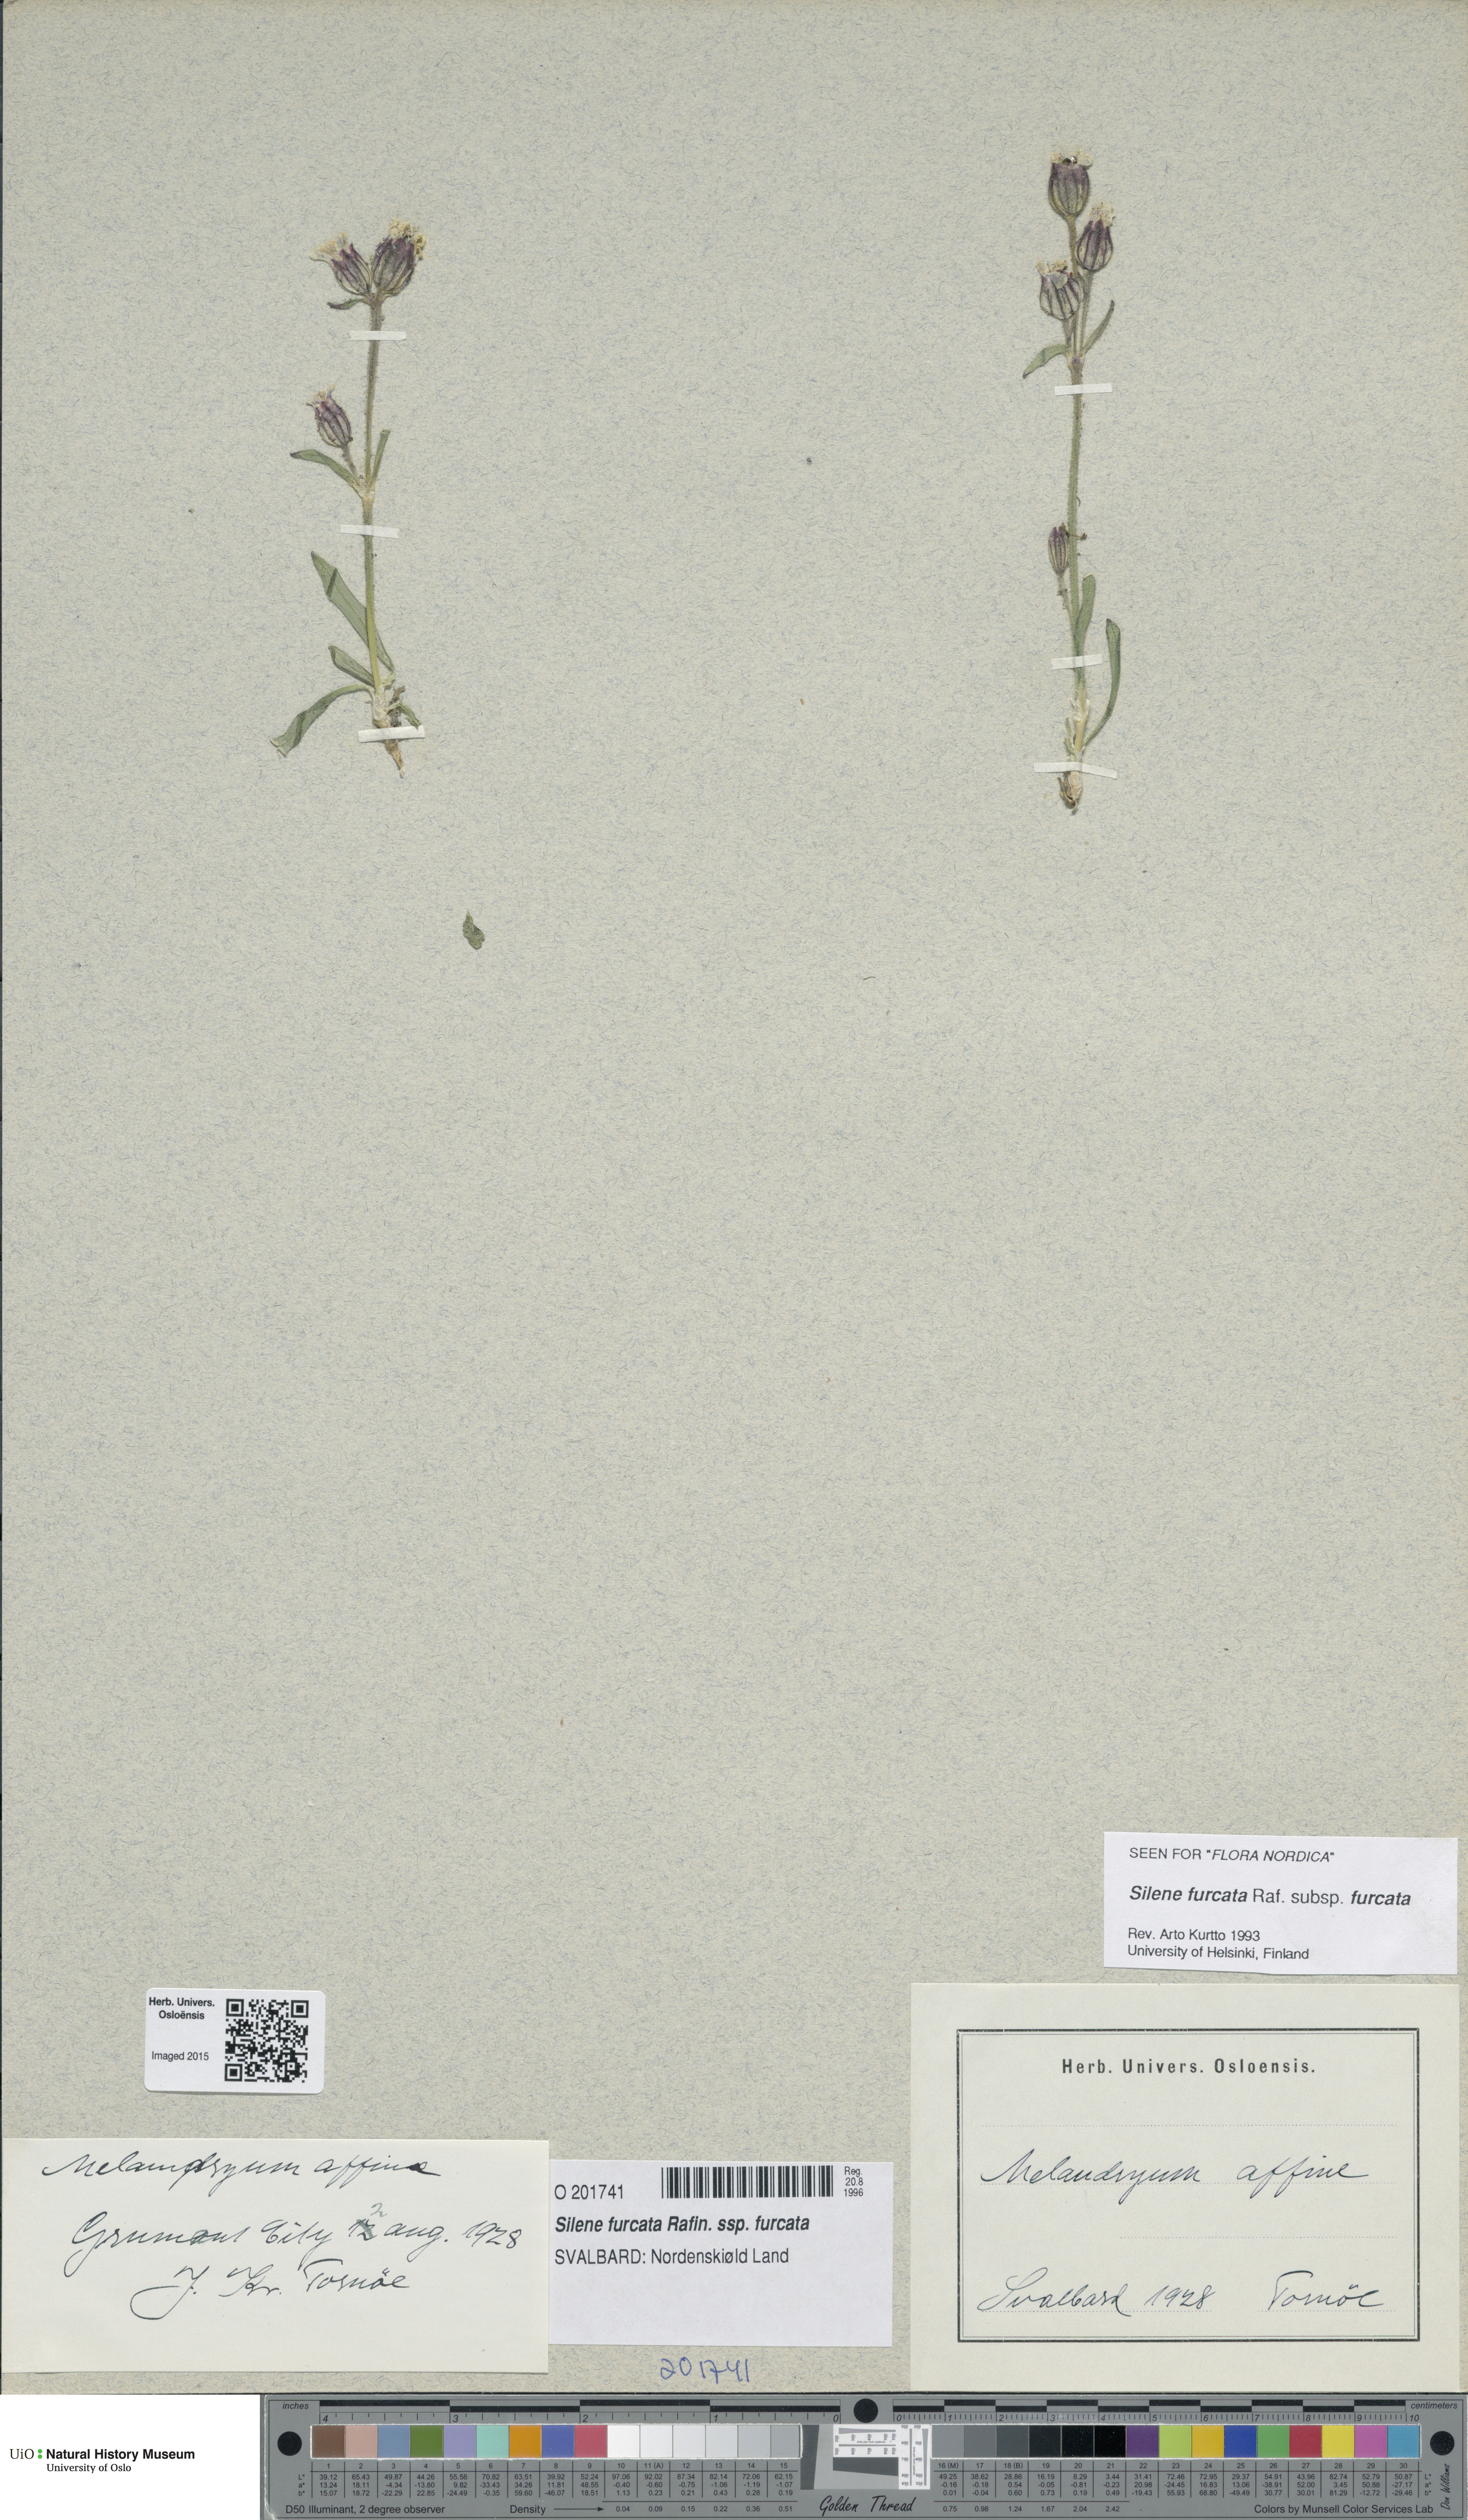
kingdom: Plantae
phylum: Tracheophyta
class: Magnoliopsida
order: Caryophyllales
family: Caryophyllaceae
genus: Silene
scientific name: Silene involucrata
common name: Greater arctic campion
